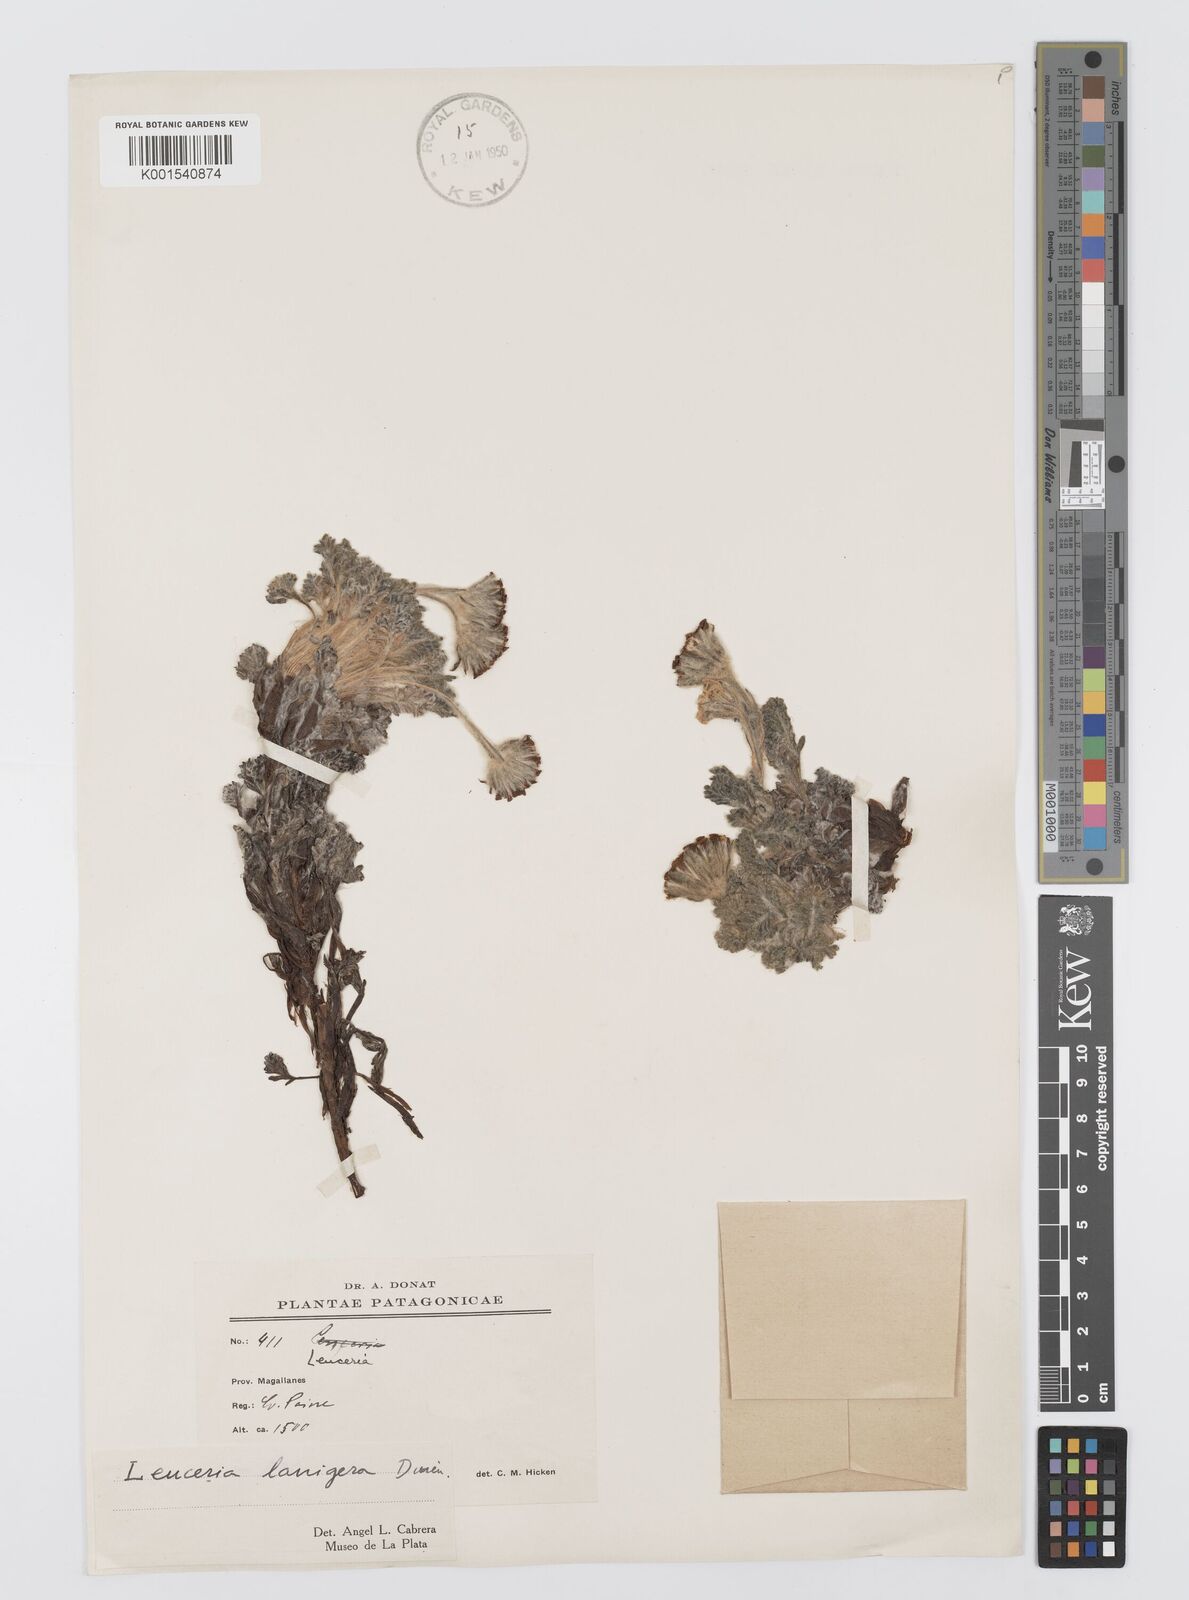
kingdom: Plantae
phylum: Tracheophyta
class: Magnoliopsida
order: Asterales
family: Asteraceae
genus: Leucheria
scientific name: Leucheria leontopodioides
